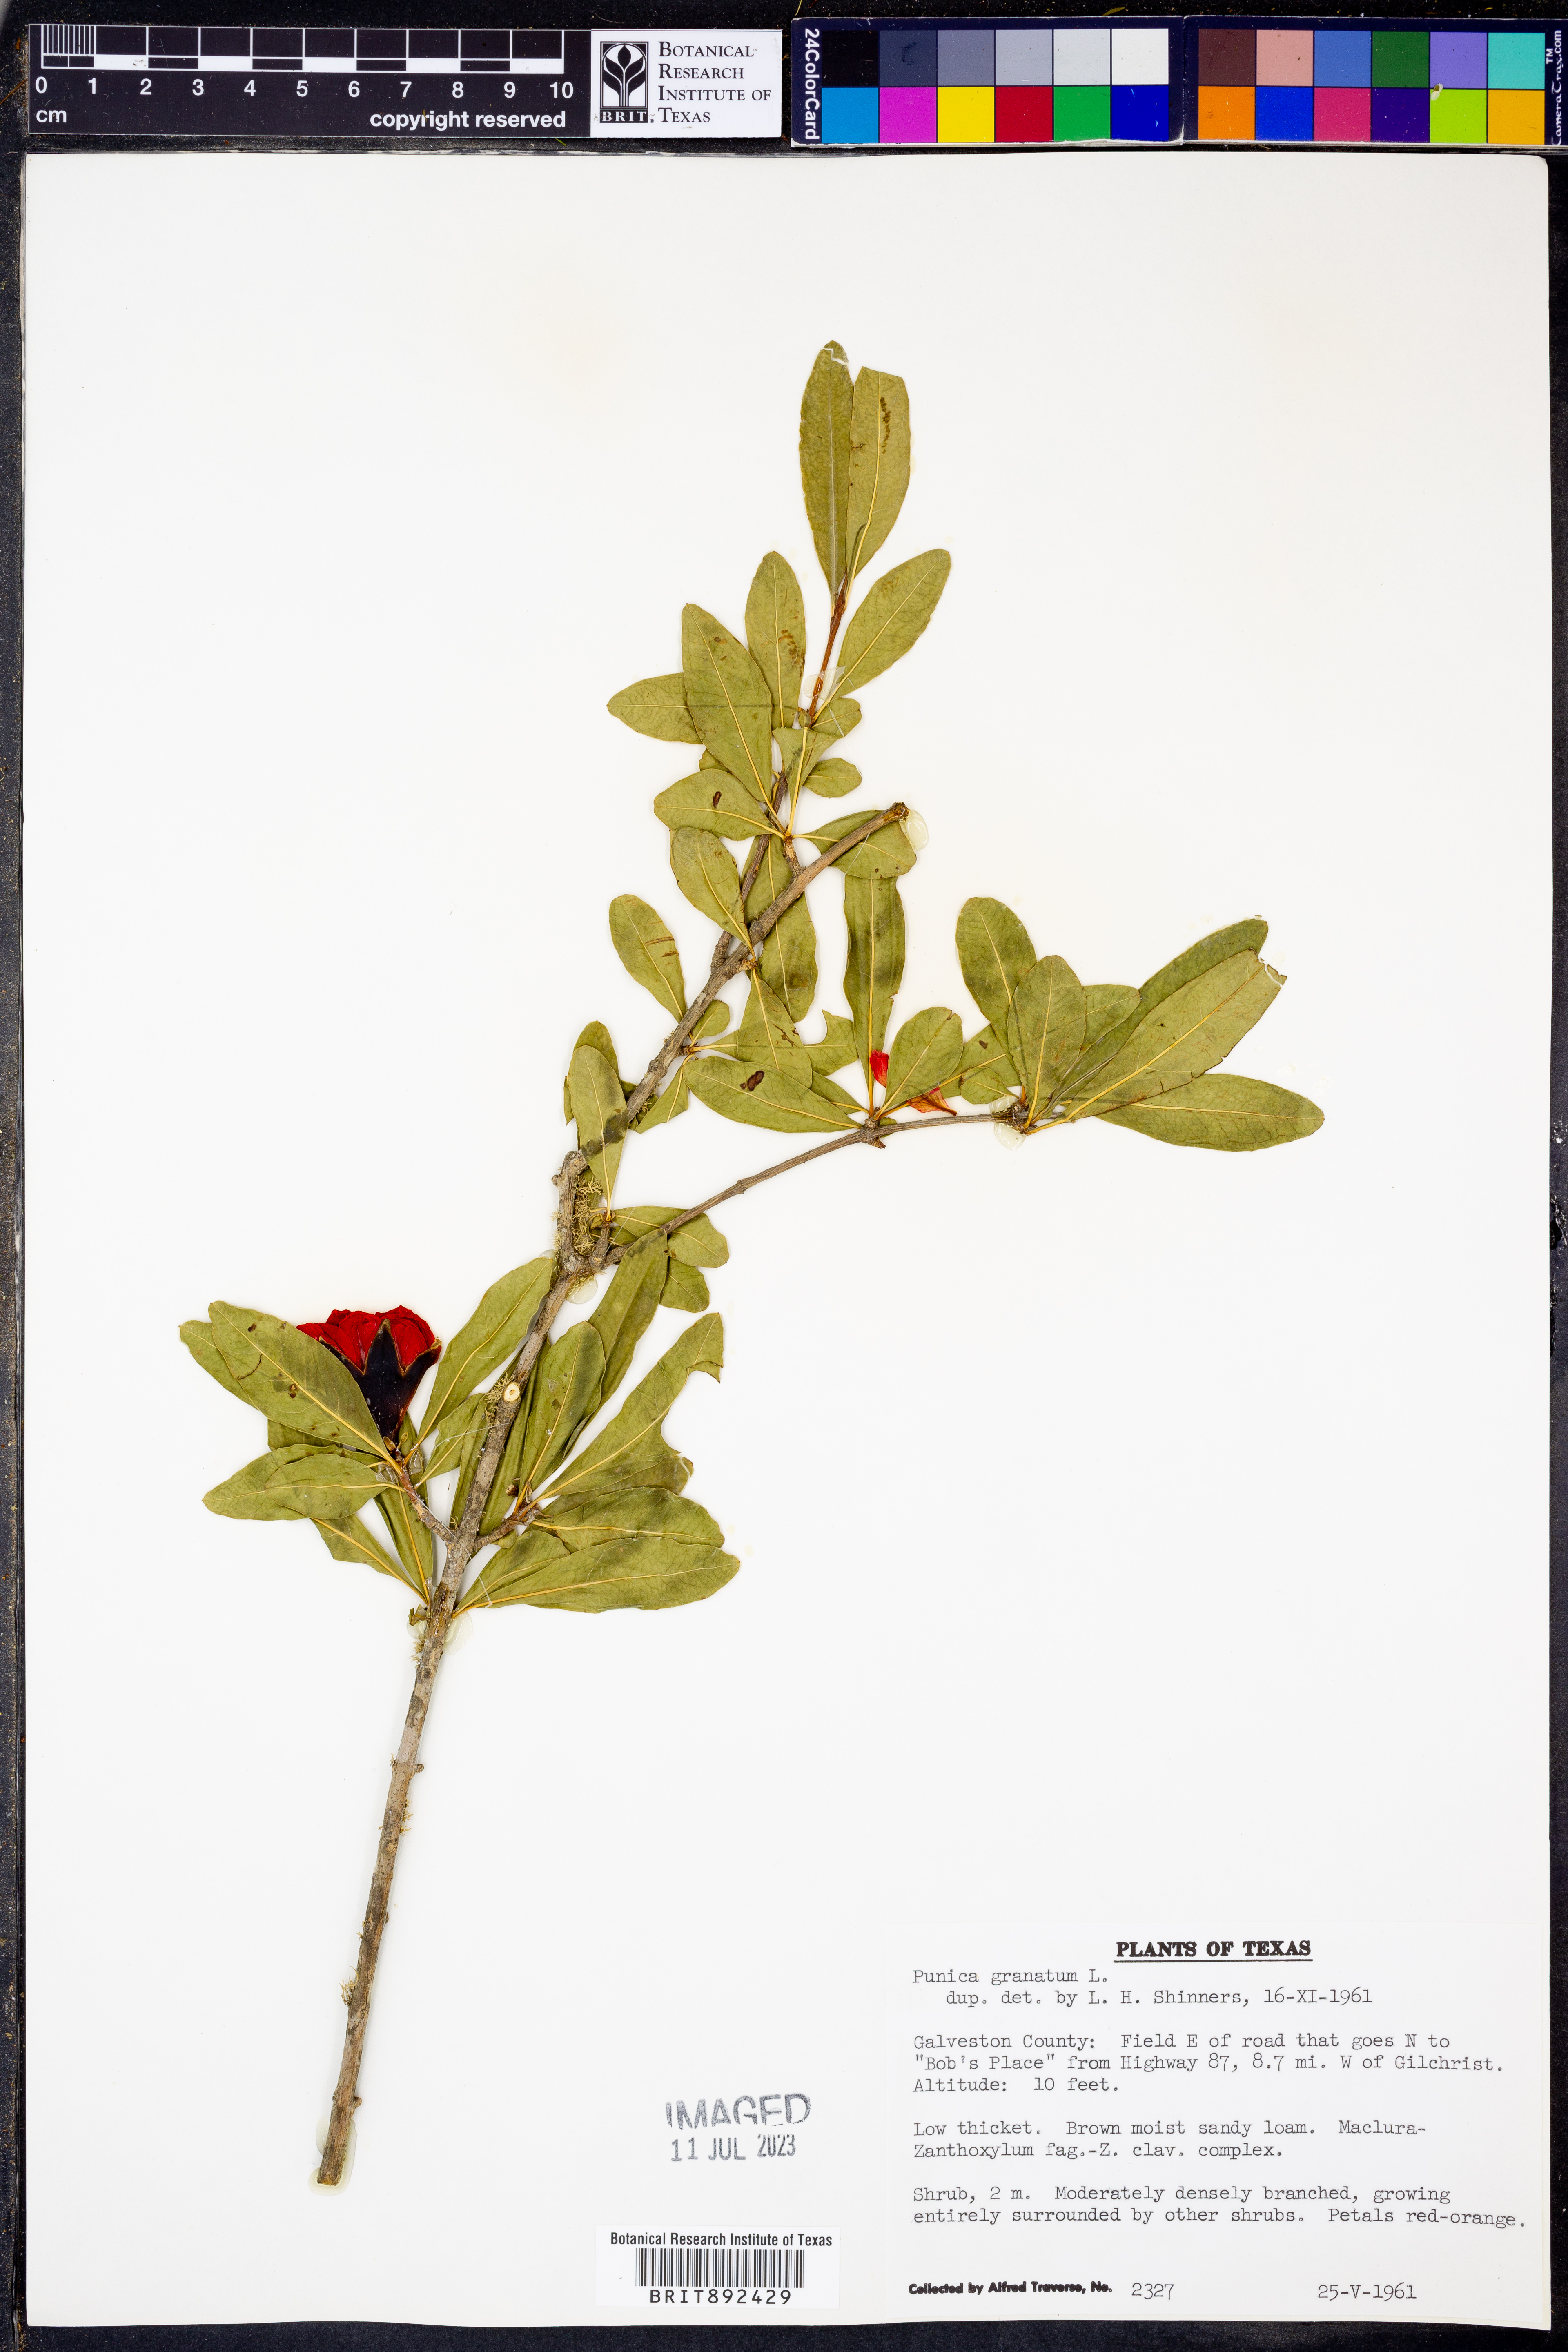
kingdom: Plantae
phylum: Tracheophyta
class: Magnoliopsida
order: Myrtales
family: Lythraceae
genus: Punica
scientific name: Punica granatum
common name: Pomegranate
